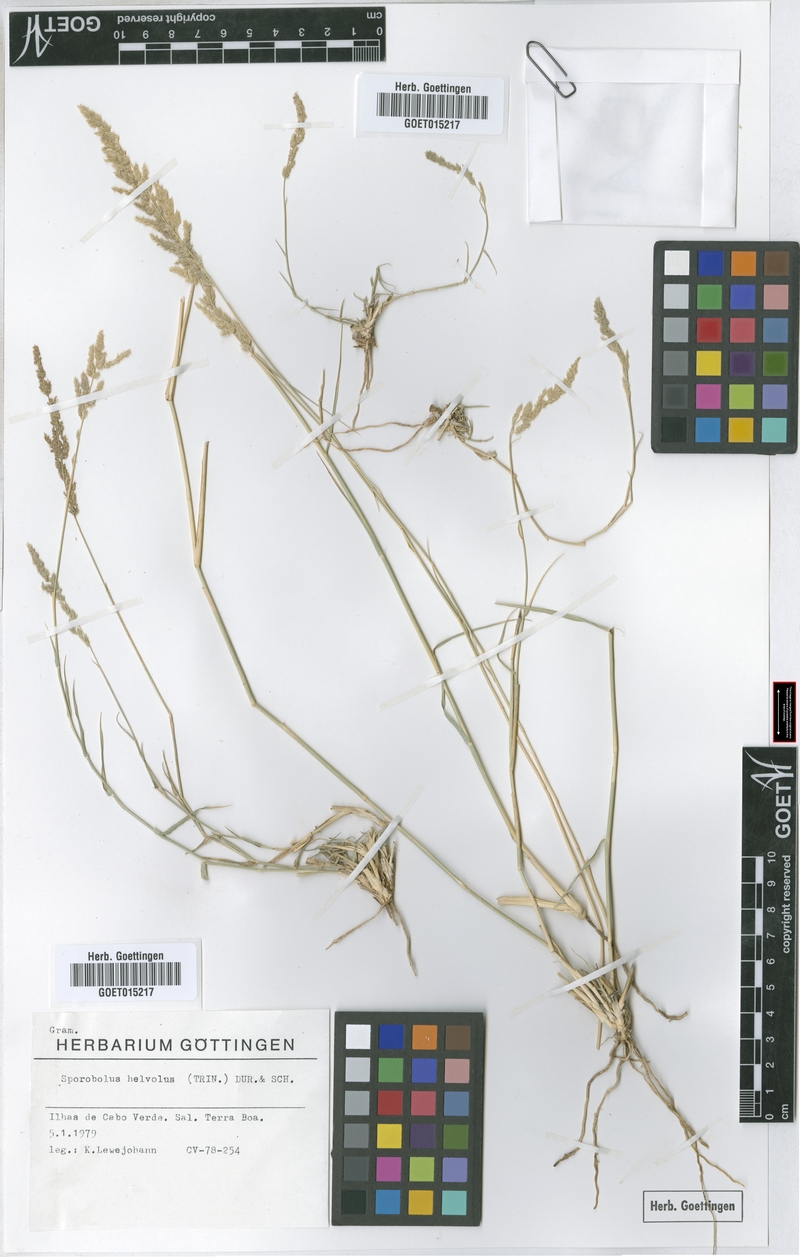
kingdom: Plantae
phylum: Tracheophyta
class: Liliopsida
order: Poales
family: Poaceae
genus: Sporobolus
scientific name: Sporobolus helvolus
